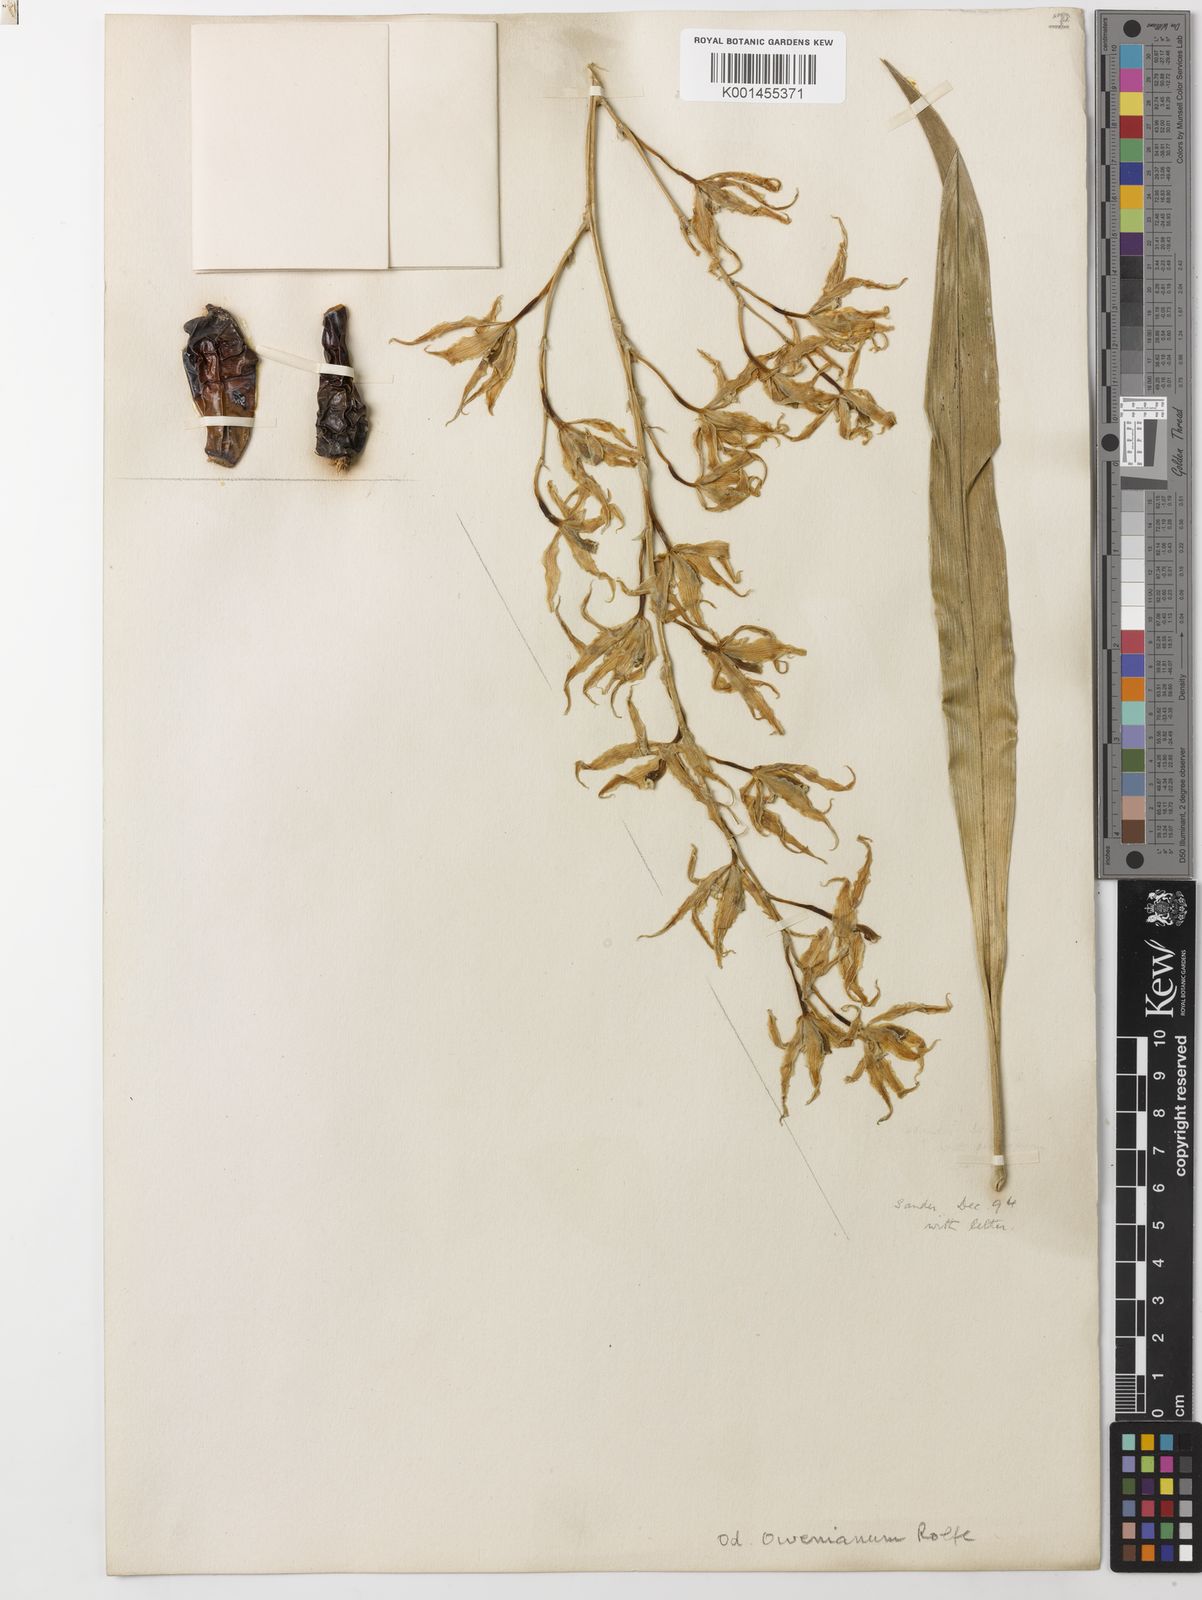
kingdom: Plantae
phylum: Tracheophyta
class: Liliopsida
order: Asparagales
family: Orchidaceae
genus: Oncidium
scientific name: Oncidium limbatum
